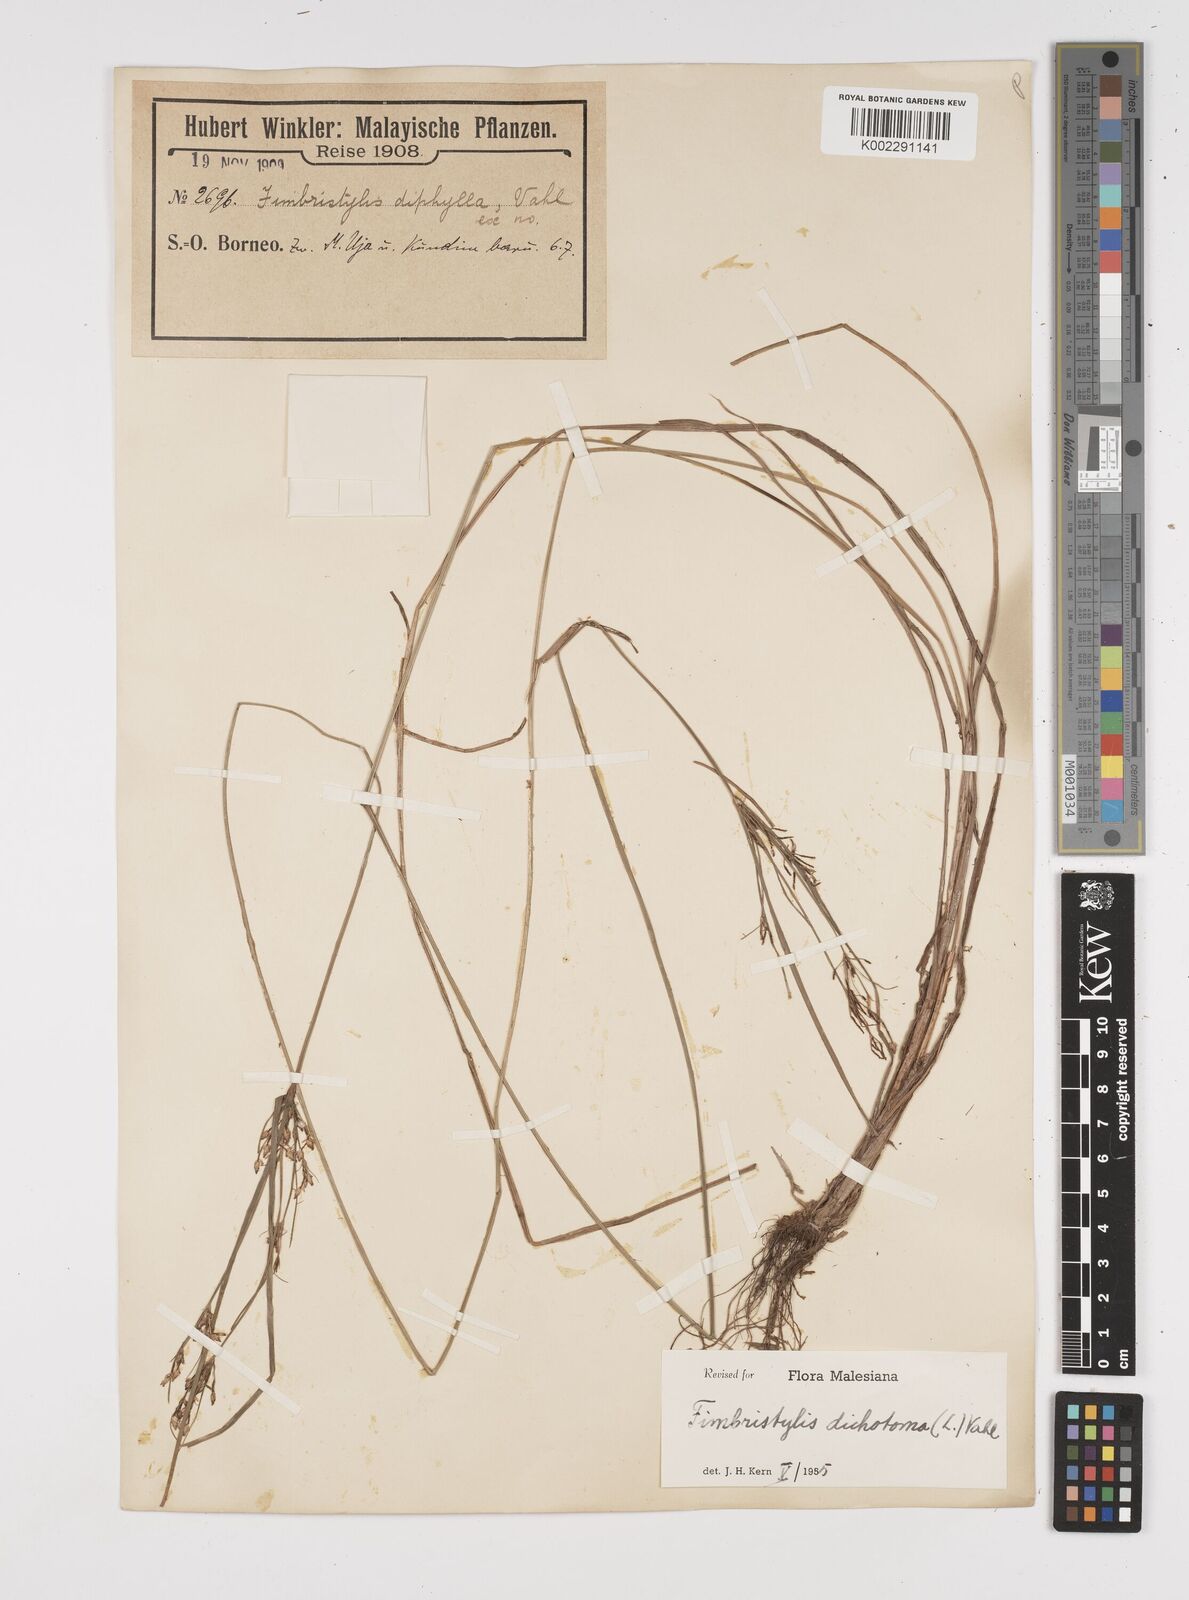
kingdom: Plantae
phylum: Tracheophyta
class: Liliopsida
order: Poales
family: Cyperaceae
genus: Fimbristylis
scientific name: Fimbristylis dichotoma
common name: Forked fimbry
